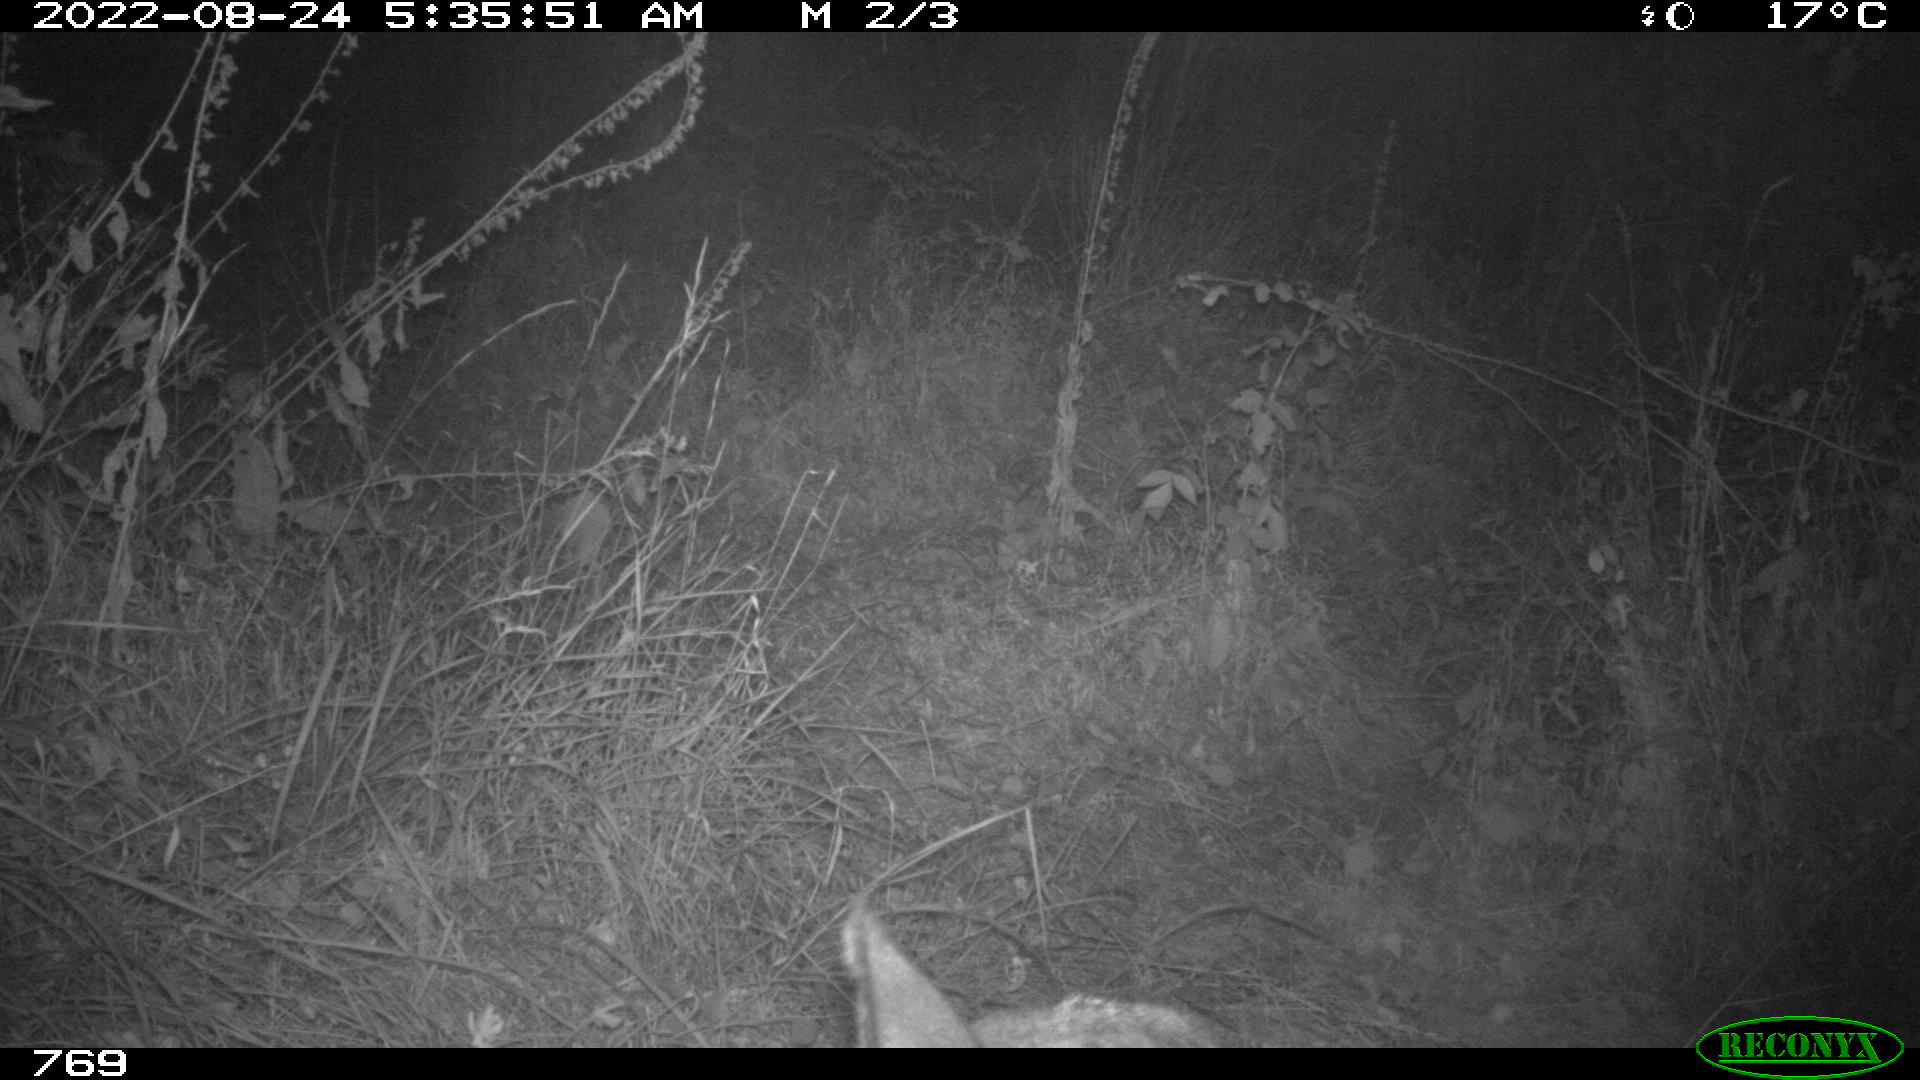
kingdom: Animalia
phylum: Chordata
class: Mammalia
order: Artiodactyla
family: Cervidae
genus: Capreolus
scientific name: Capreolus capreolus
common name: Western roe deer
